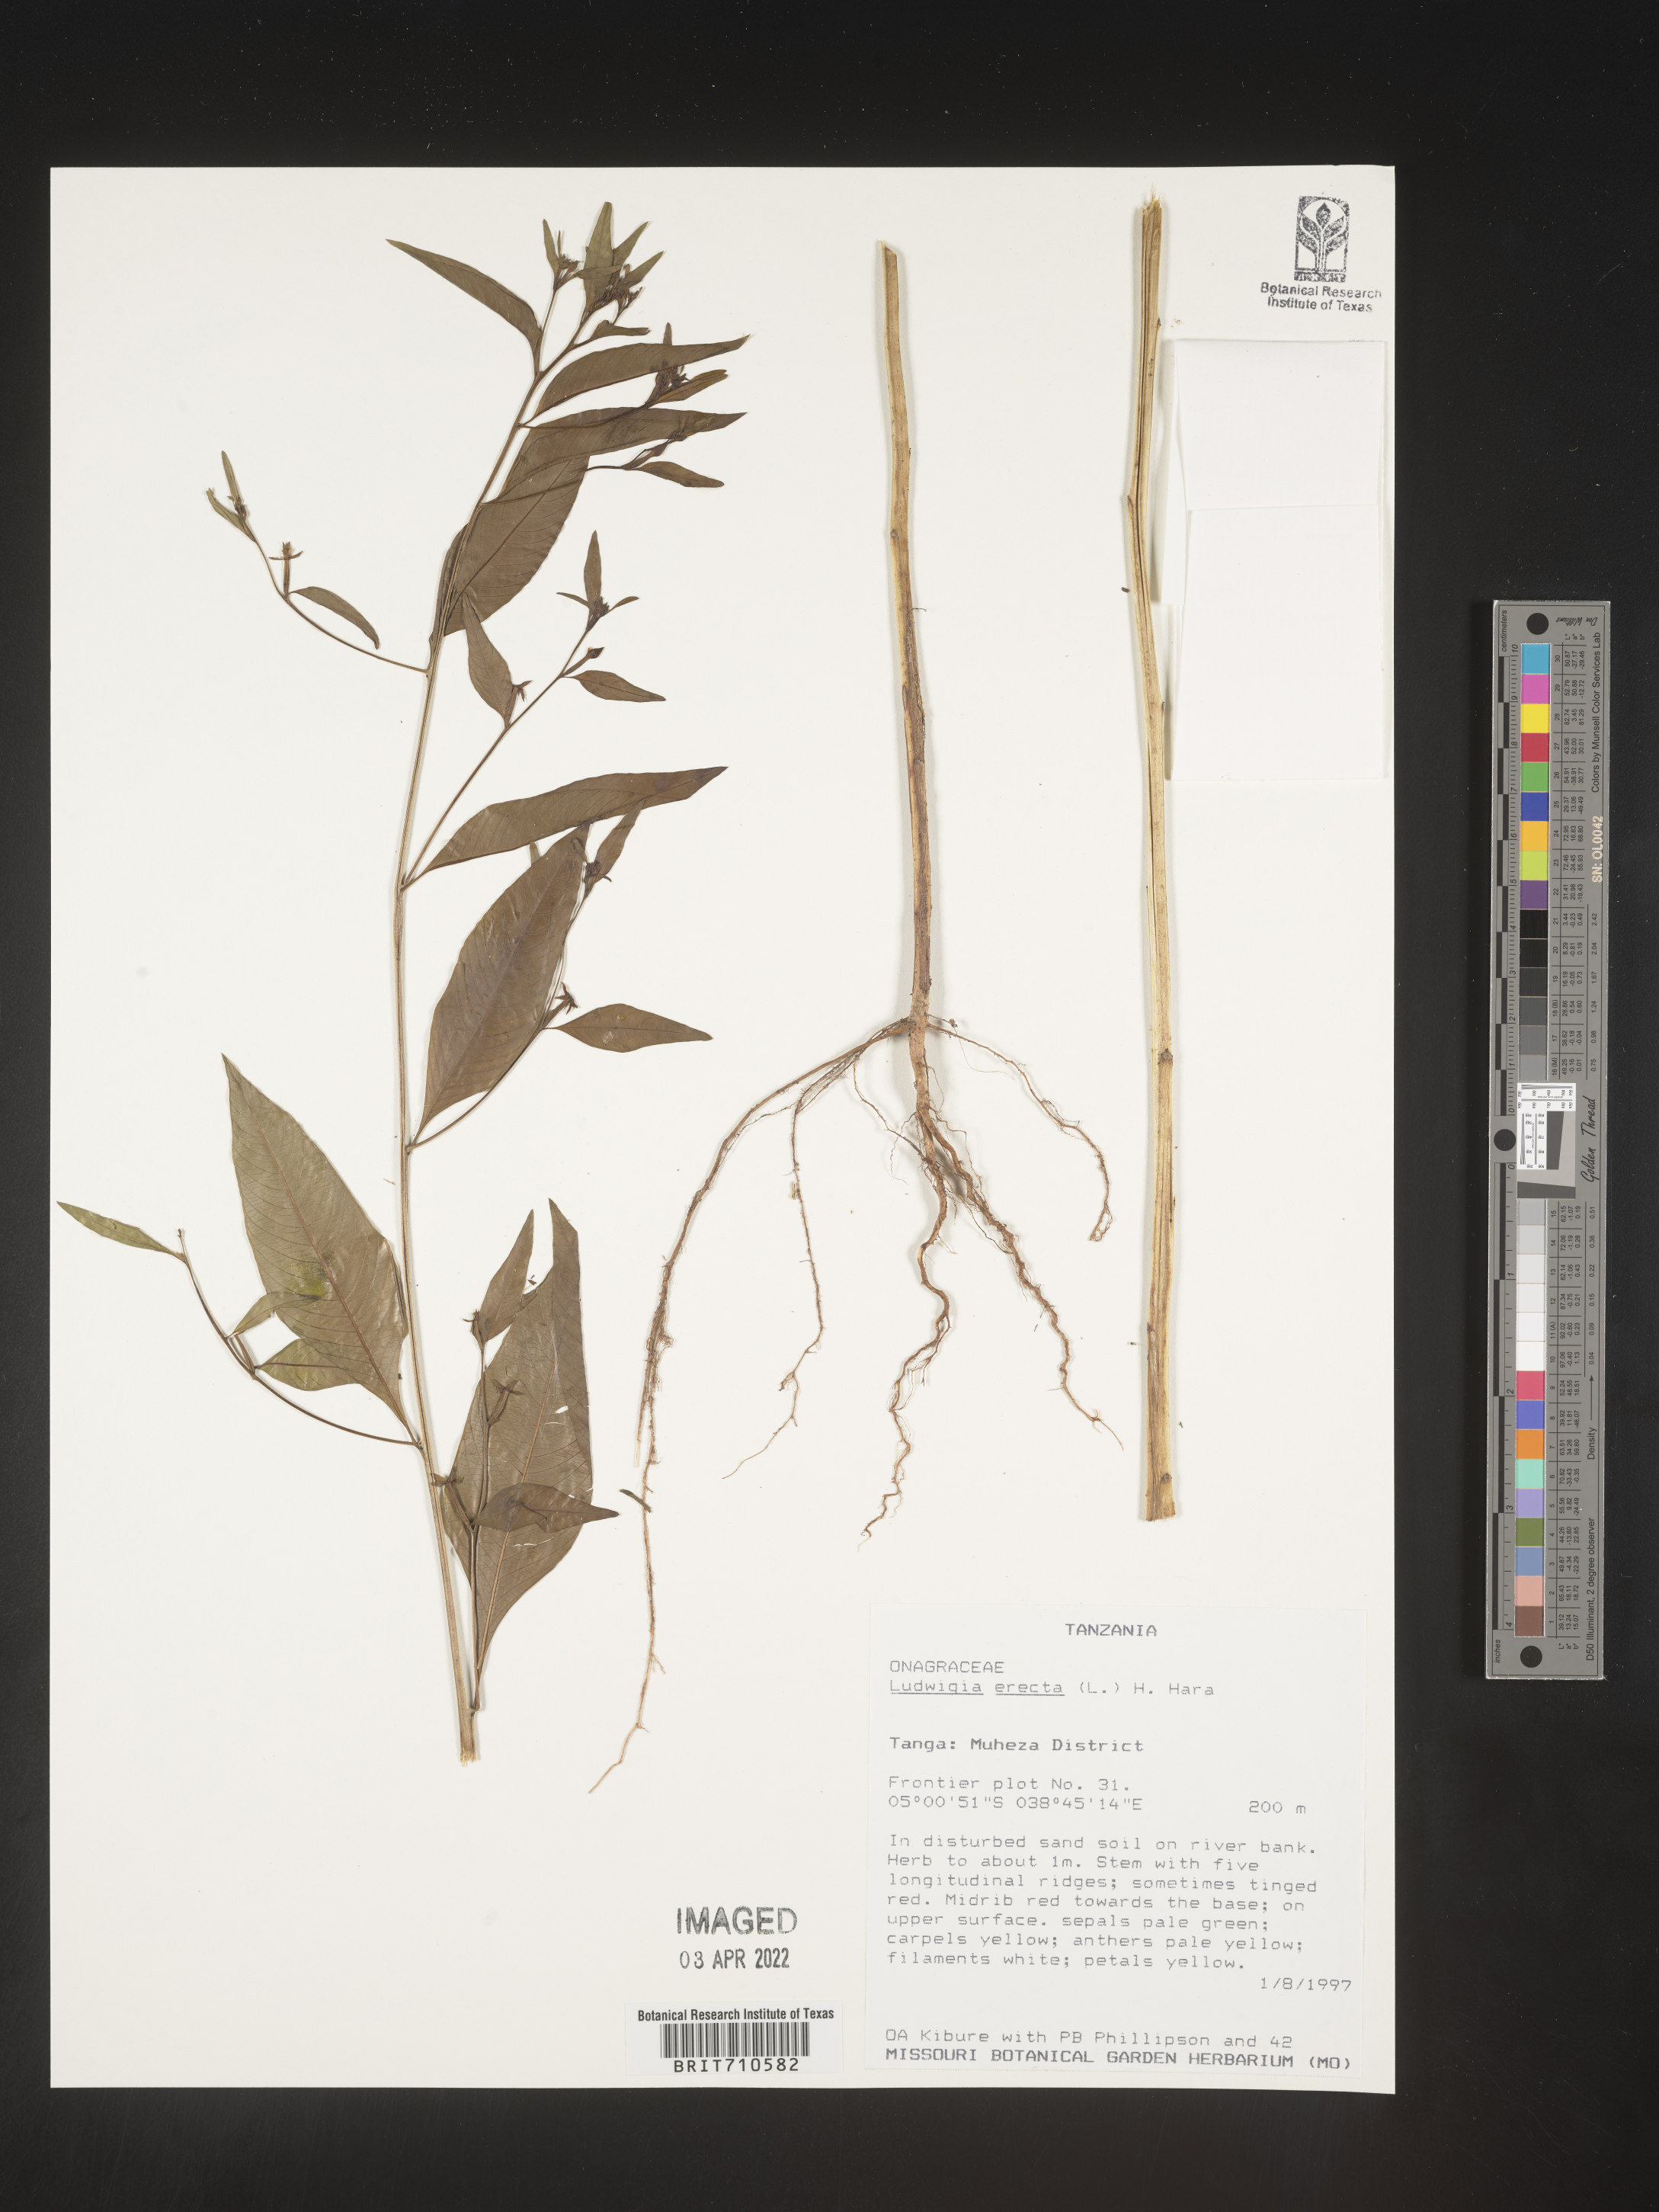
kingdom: Plantae
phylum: Tracheophyta
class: Magnoliopsida
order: Myrtales
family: Onagraceae
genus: Ludwigia
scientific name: Ludwigia
